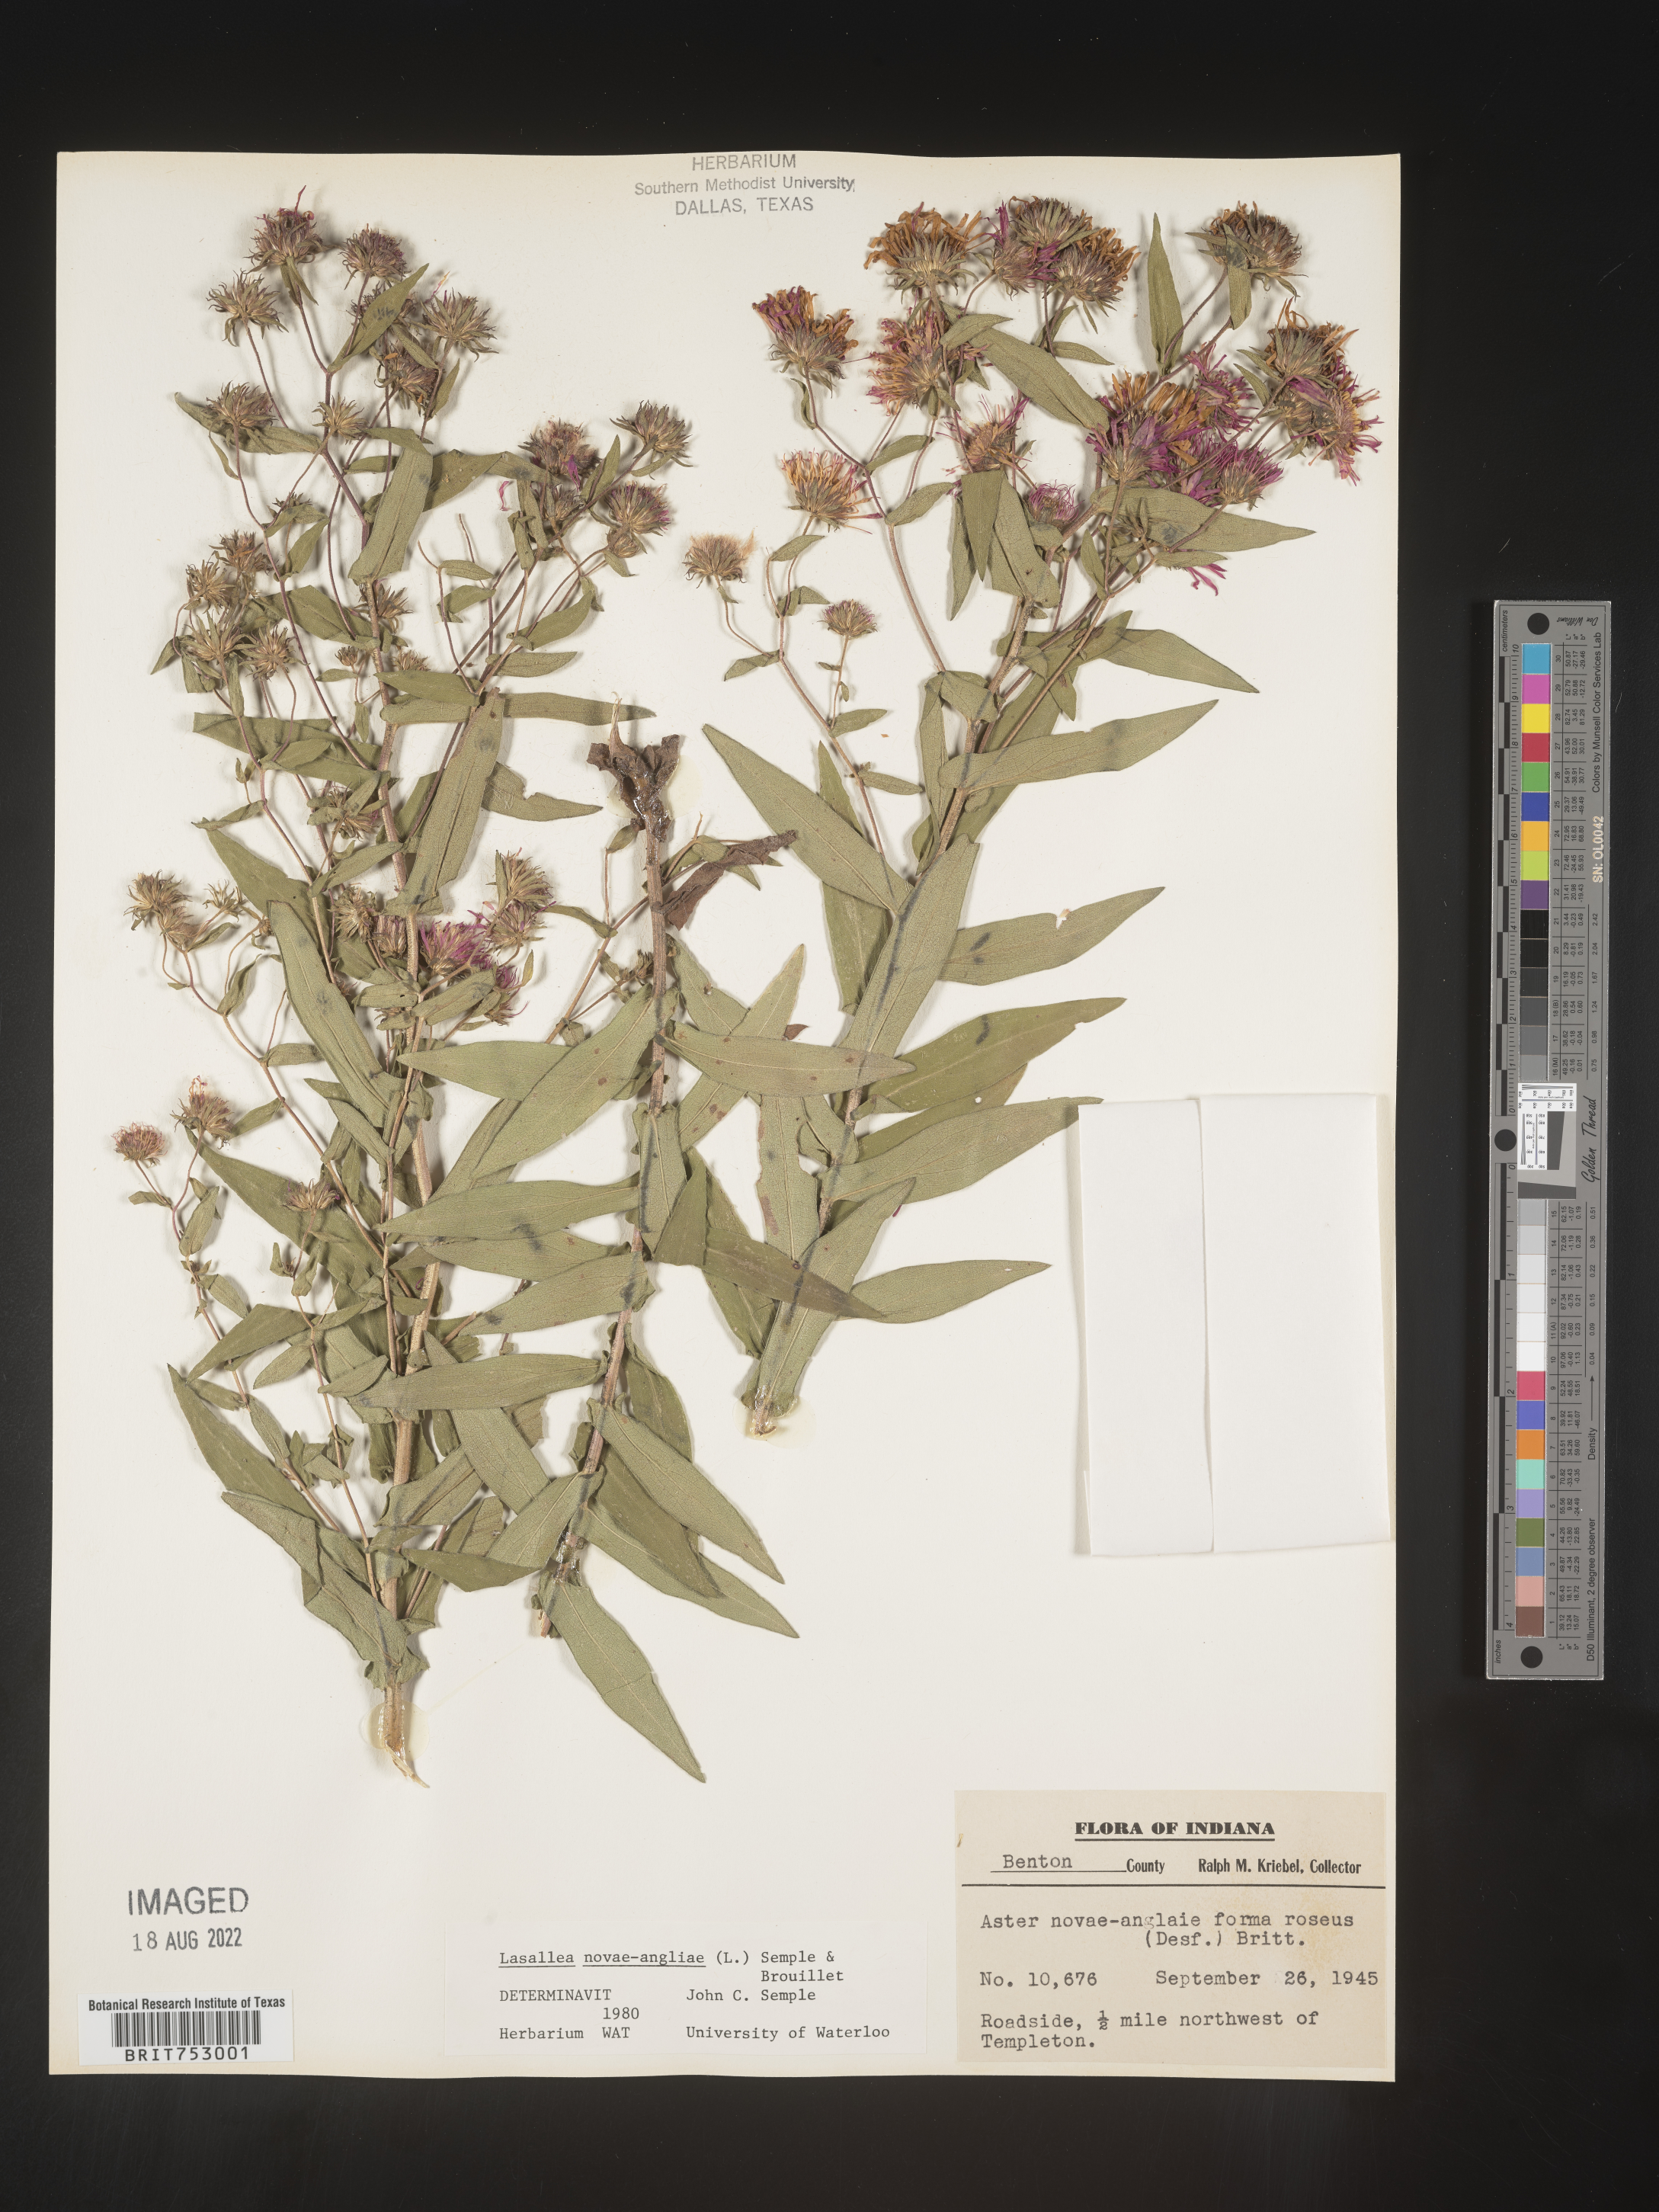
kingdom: Plantae
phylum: Tracheophyta
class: Magnoliopsida
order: Asterales
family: Asteraceae
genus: Symphyotrichum
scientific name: Symphyotrichum novae-angliae
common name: Michaelmas daisy
